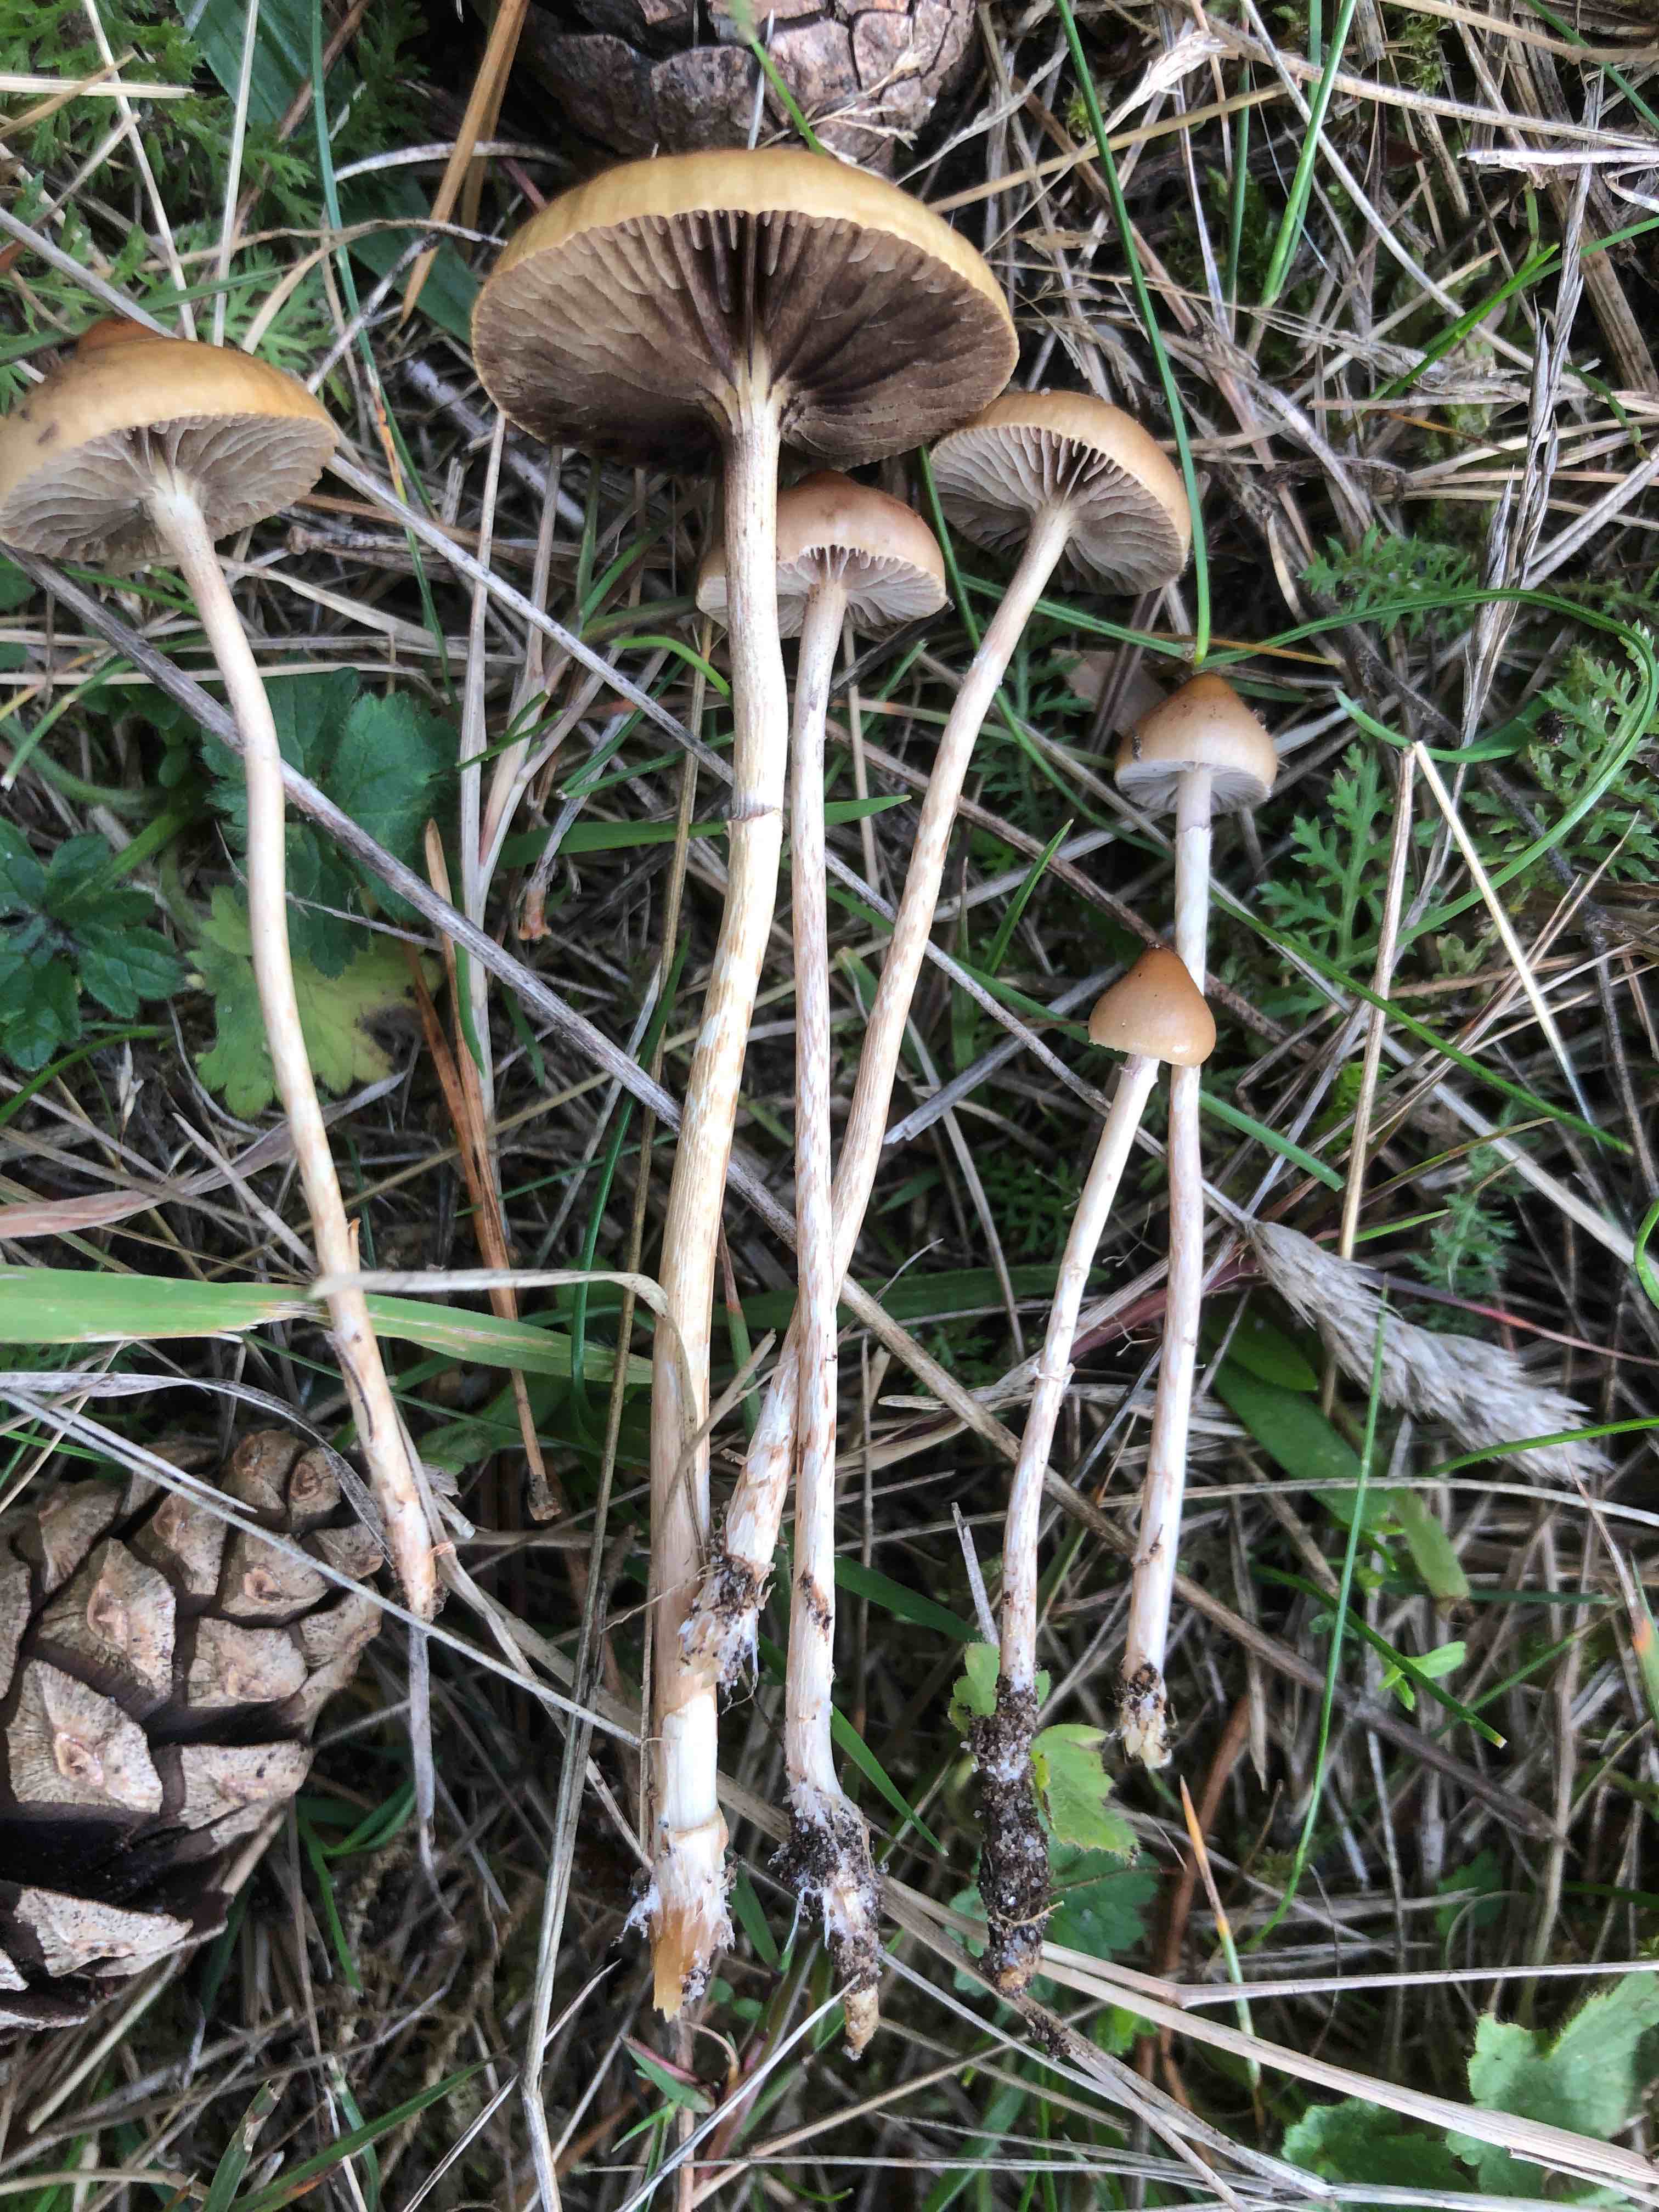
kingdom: Fungi
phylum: Basidiomycota
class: Agaricomycetes
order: Agaricales
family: Strophariaceae
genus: Protostropharia
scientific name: Protostropharia luteonitens
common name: slimstokket bredblad
